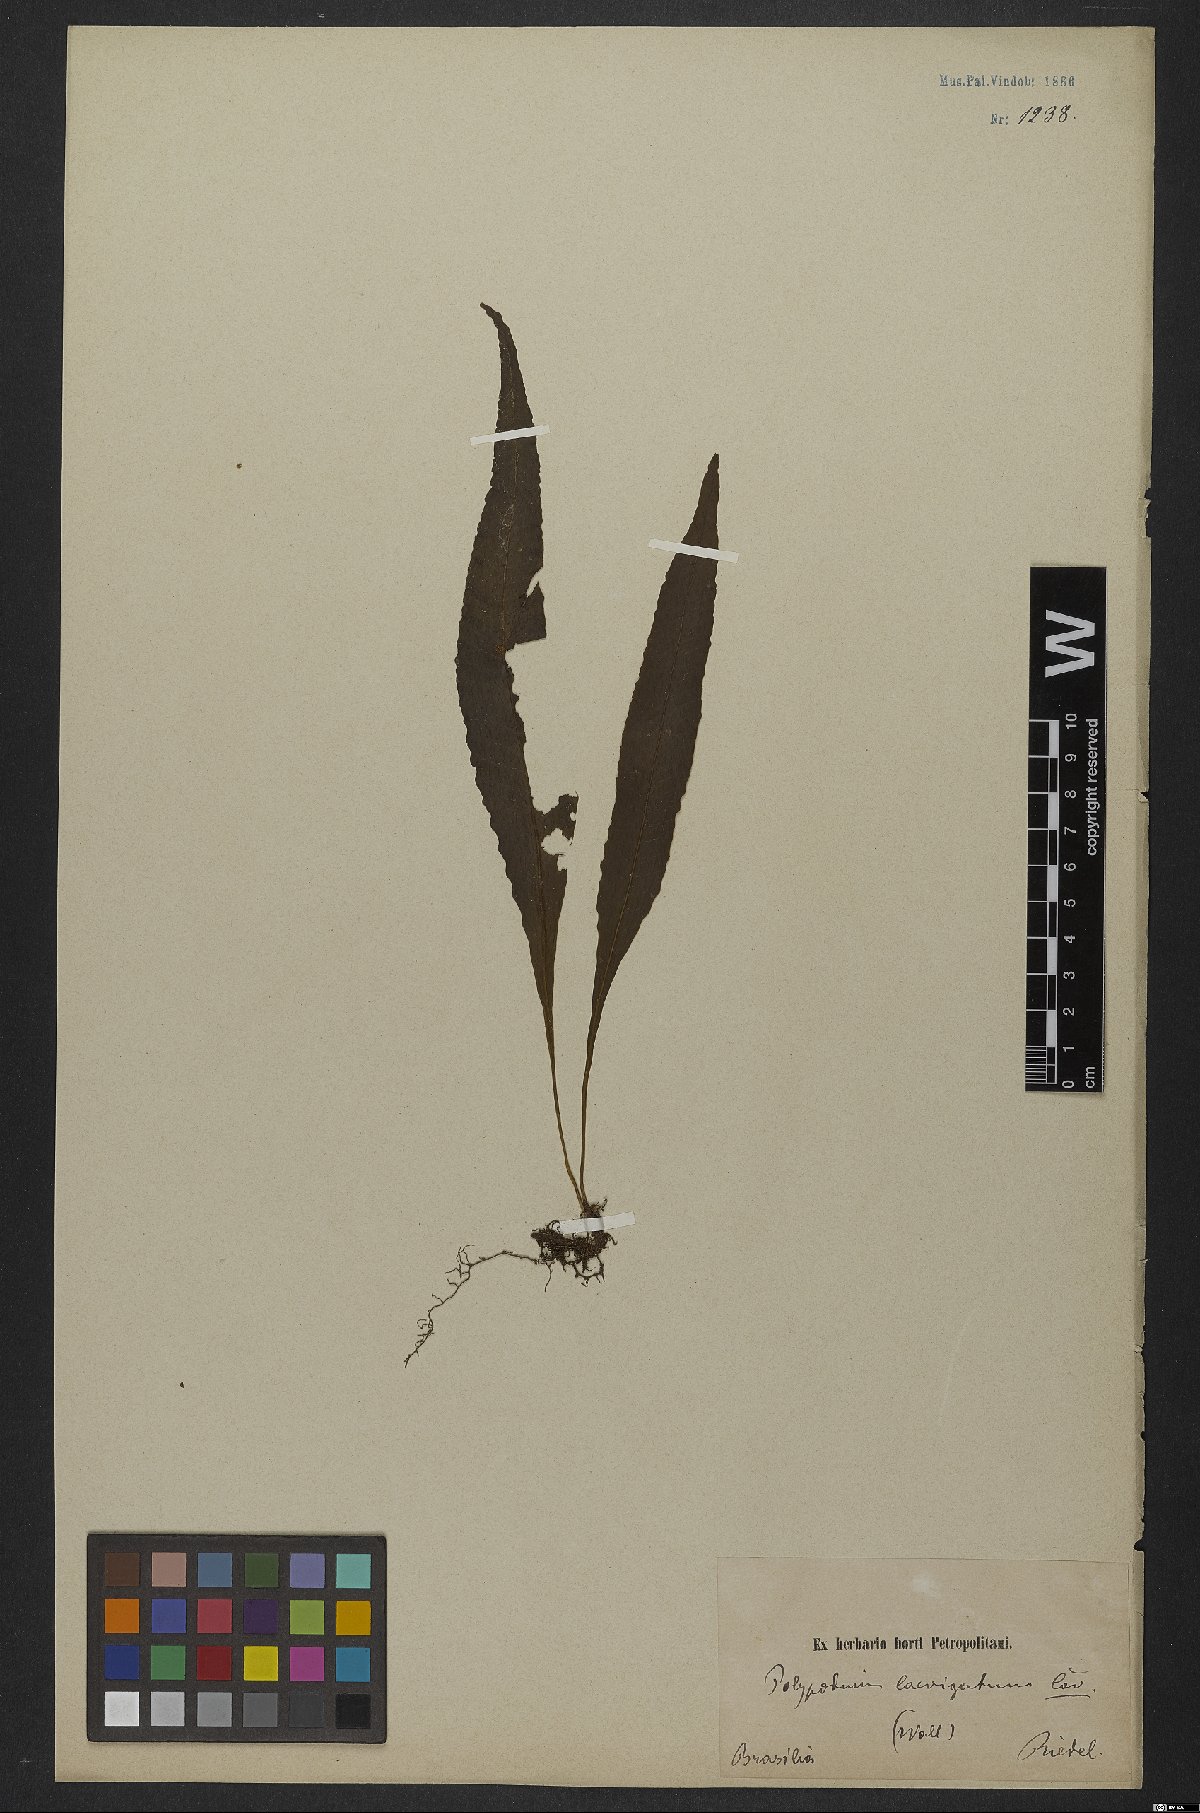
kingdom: Plantae
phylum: Tracheophyta
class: Polypodiopsida
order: Polypodiales
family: Polypodiaceae
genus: Serpocaulon
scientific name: Serpocaulon levigatum
